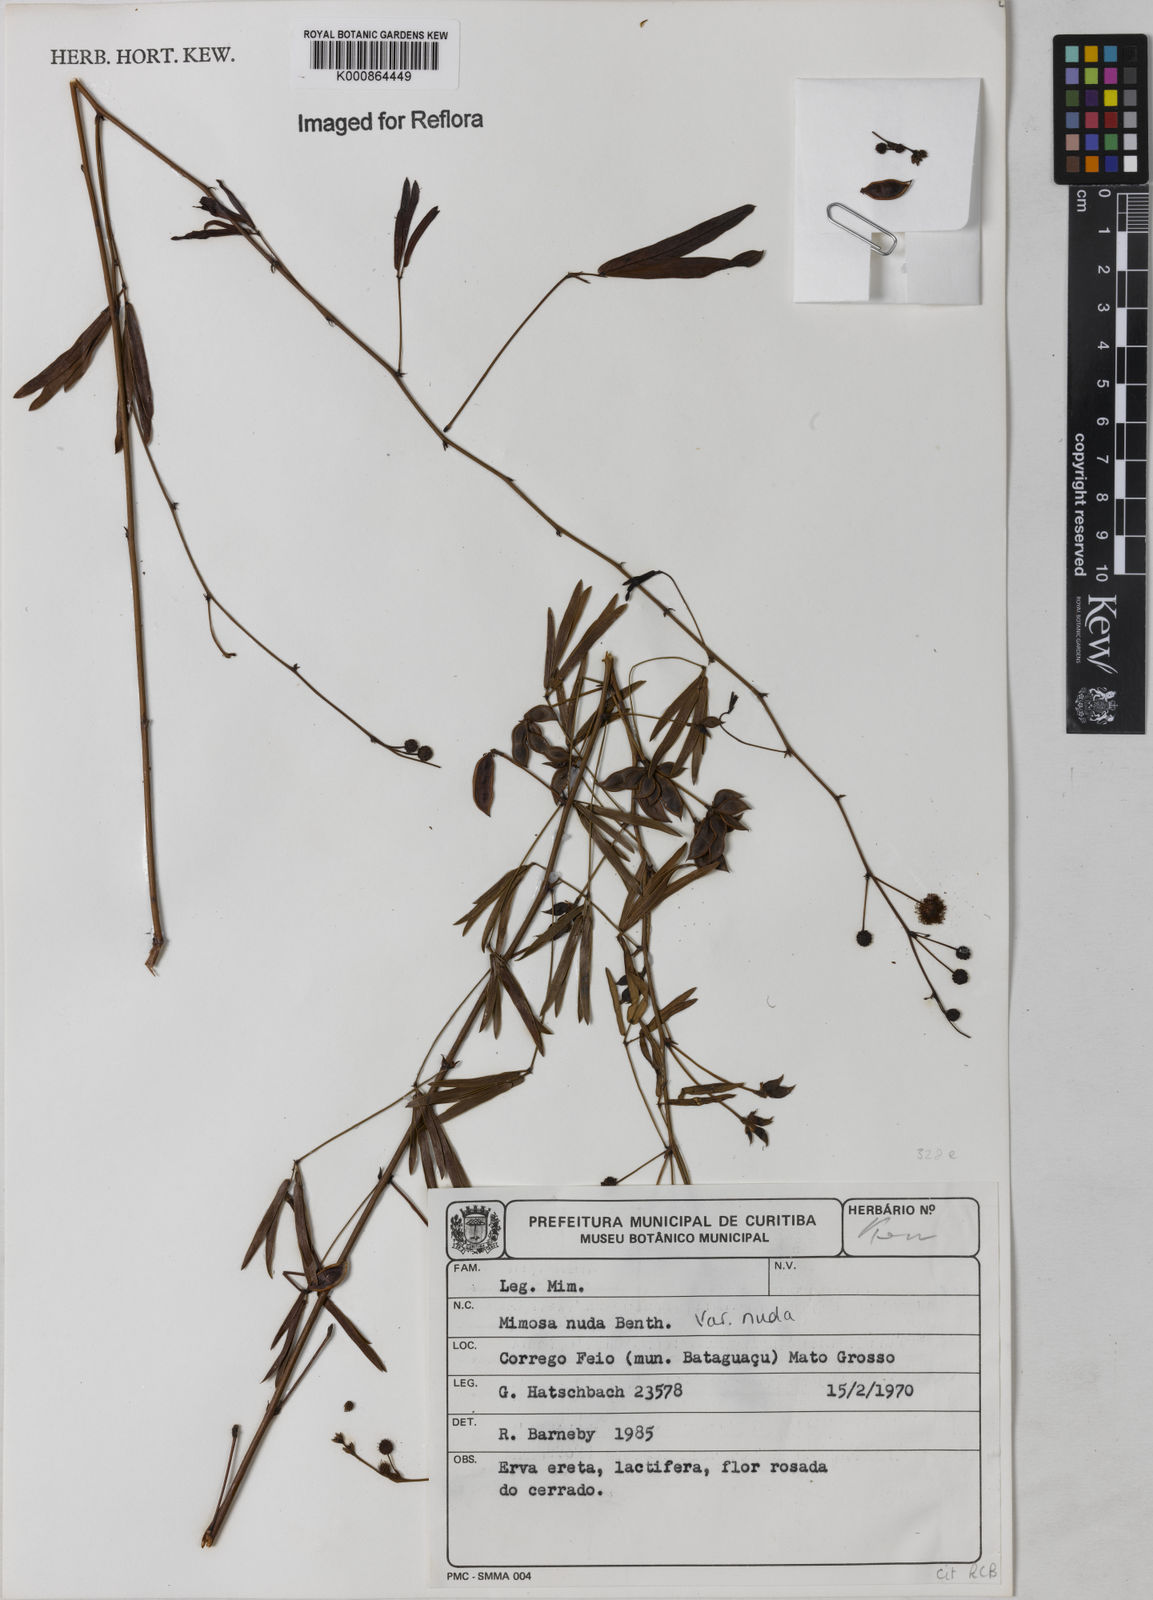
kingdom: Plantae
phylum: Tracheophyta
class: Magnoliopsida
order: Fabales
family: Fabaceae
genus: Mimosa
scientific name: Mimosa debilis
